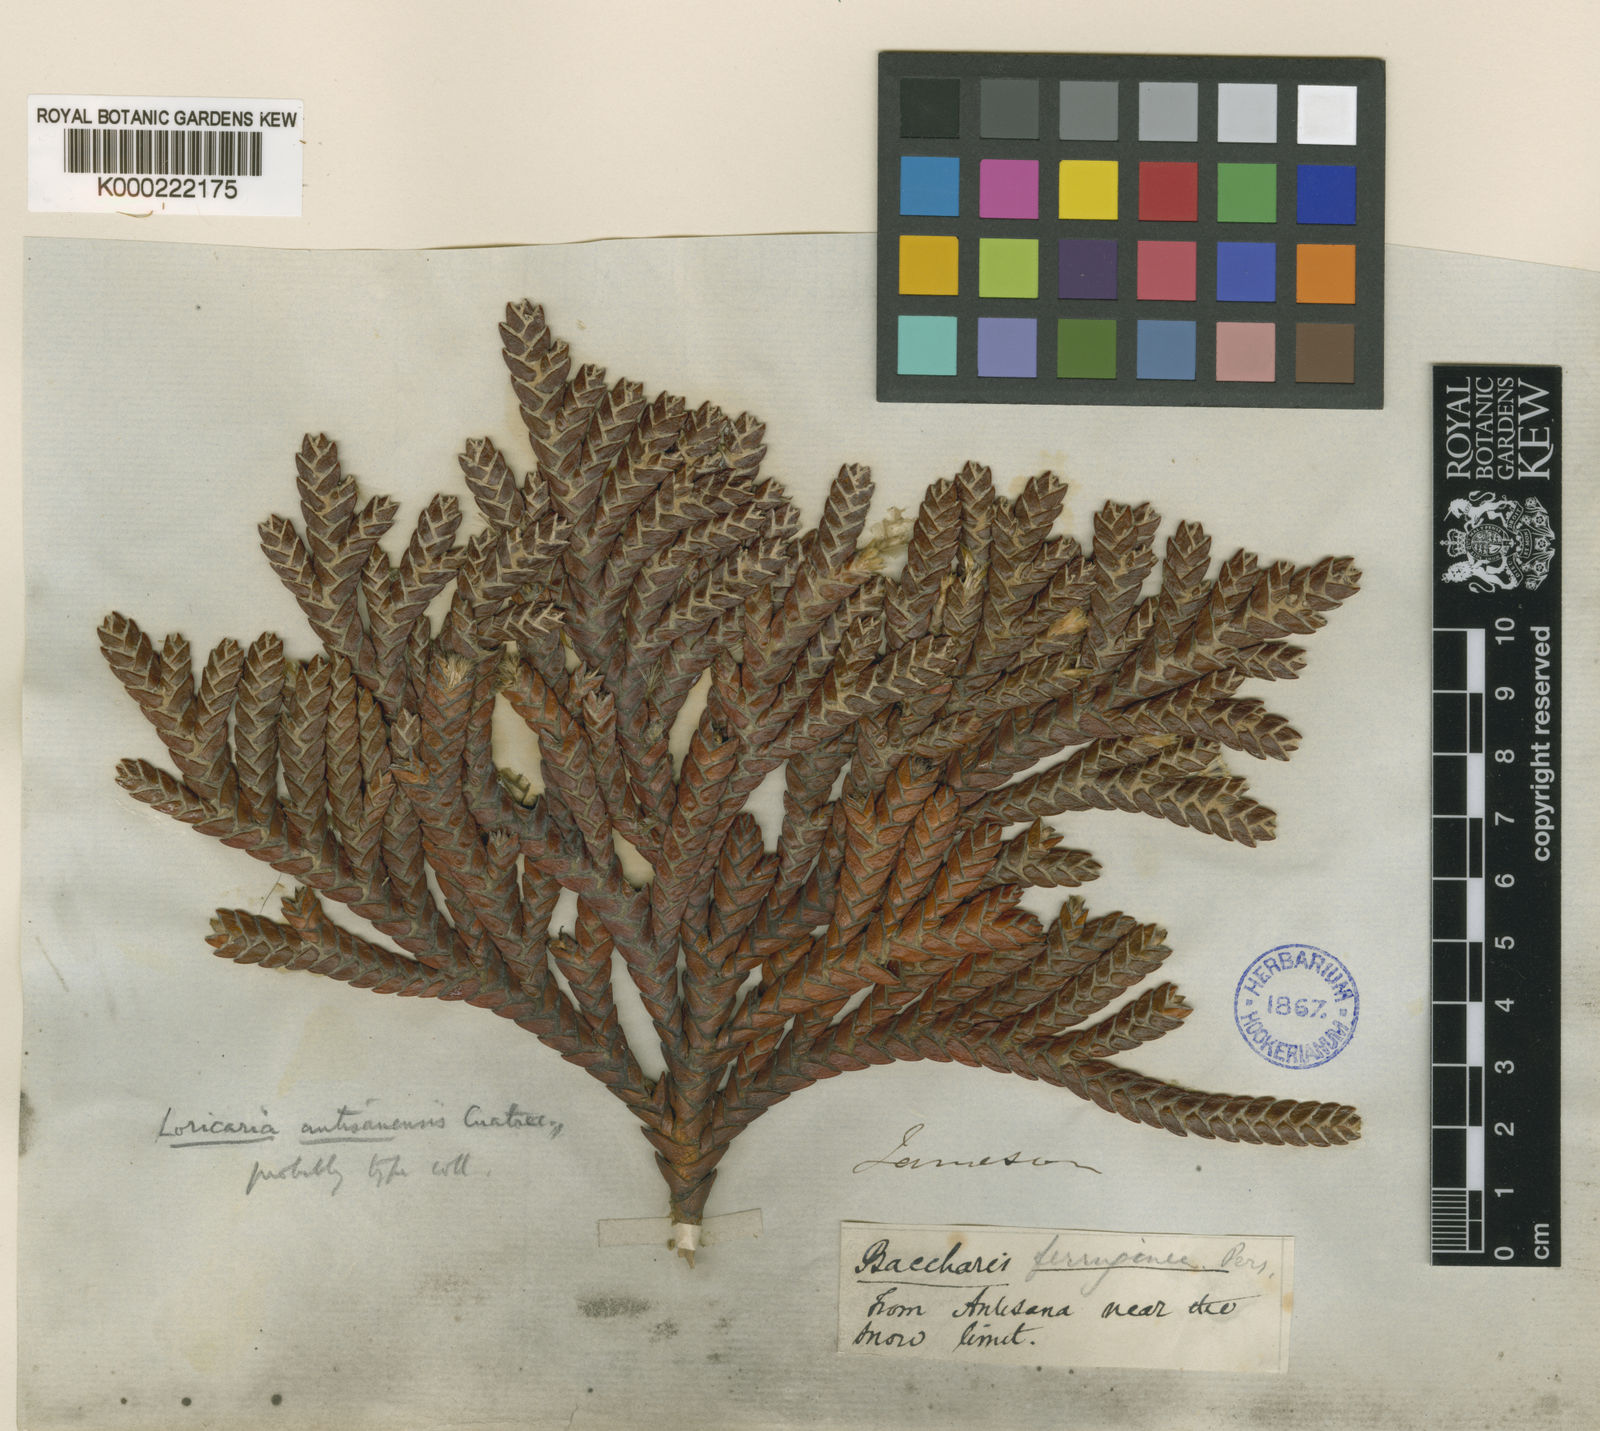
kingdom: Plantae
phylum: Tracheophyta
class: Magnoliopsida
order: Asterales
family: Asteraceae
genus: Andicolea
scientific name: Andicolea antisanensis
